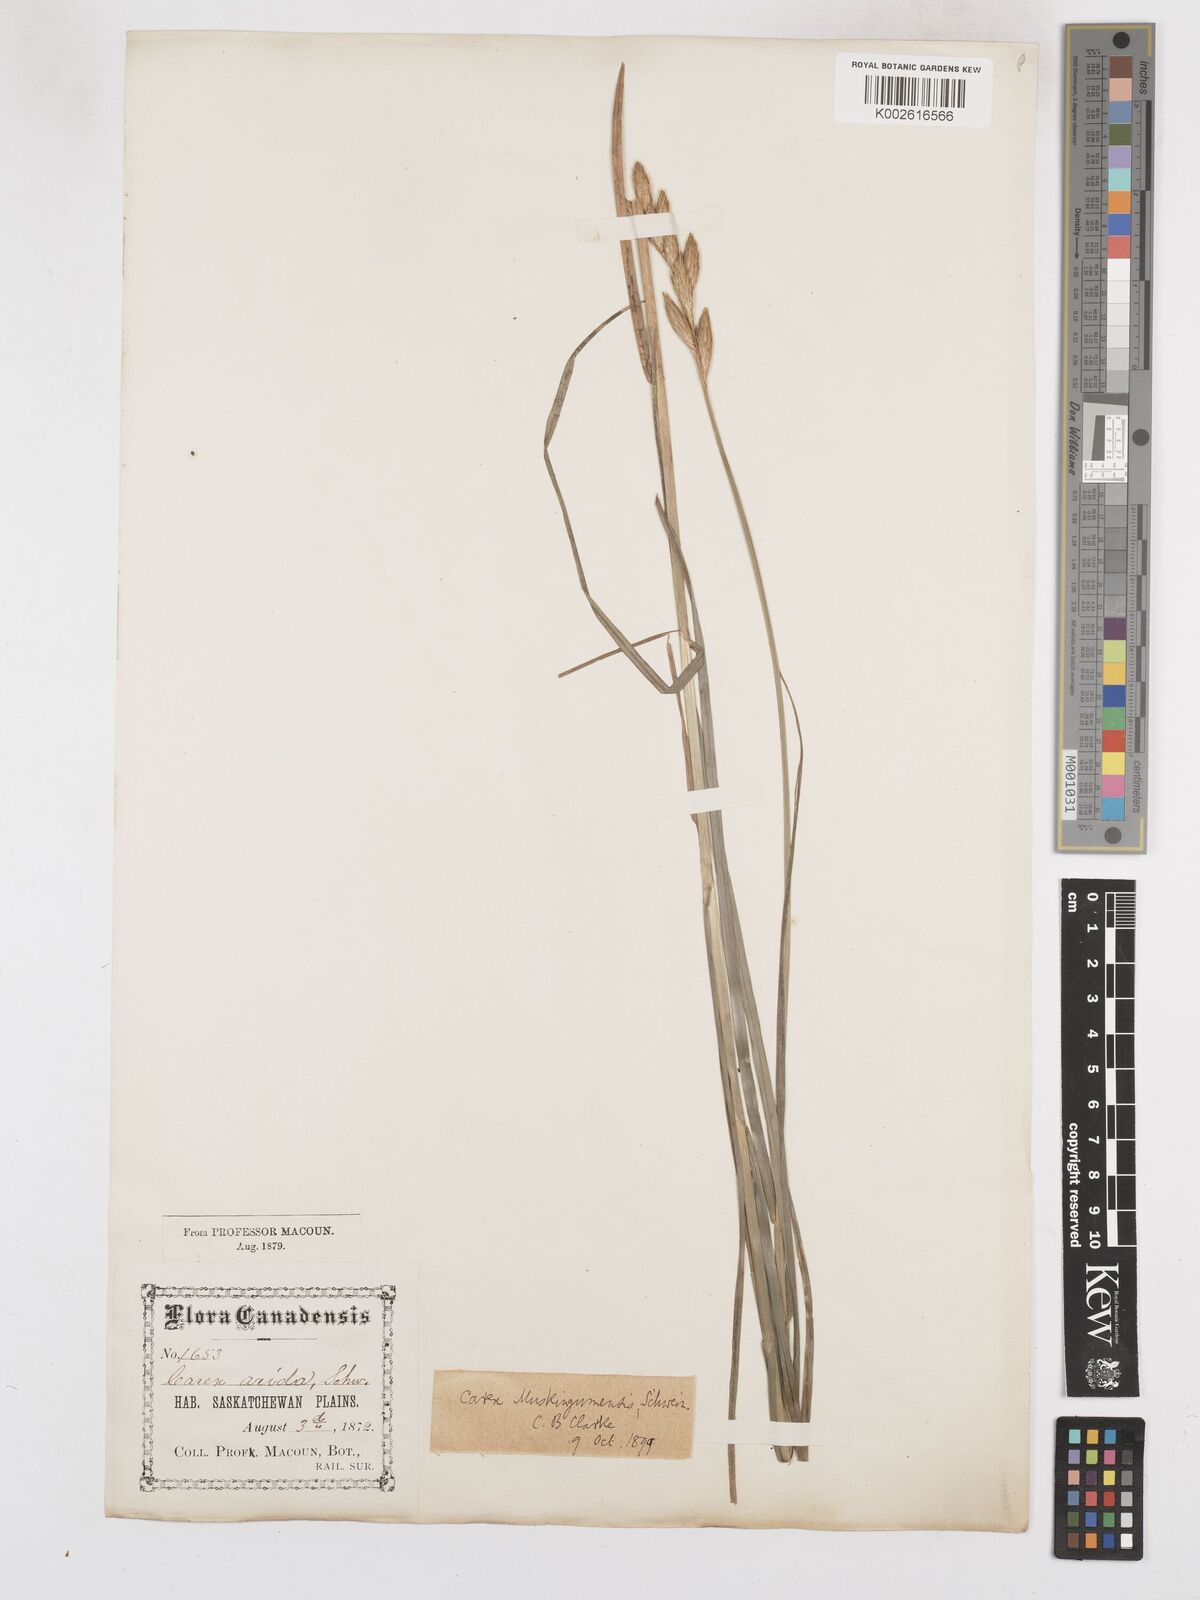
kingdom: Plantae
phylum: Tracheophyta
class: Liliopsida
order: Poales
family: Cyperaceae
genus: Carex
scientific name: Carex muskingumensis
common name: Muskingum sedge
